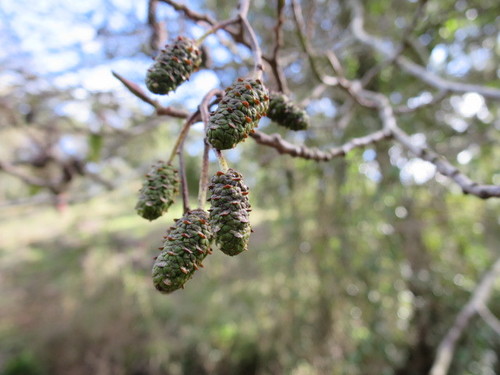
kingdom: Plantae
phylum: Tracheophyta
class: Magnoliopsida
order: Fagales
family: Betulaceae
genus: Alnus
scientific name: Alnus lusitanica
